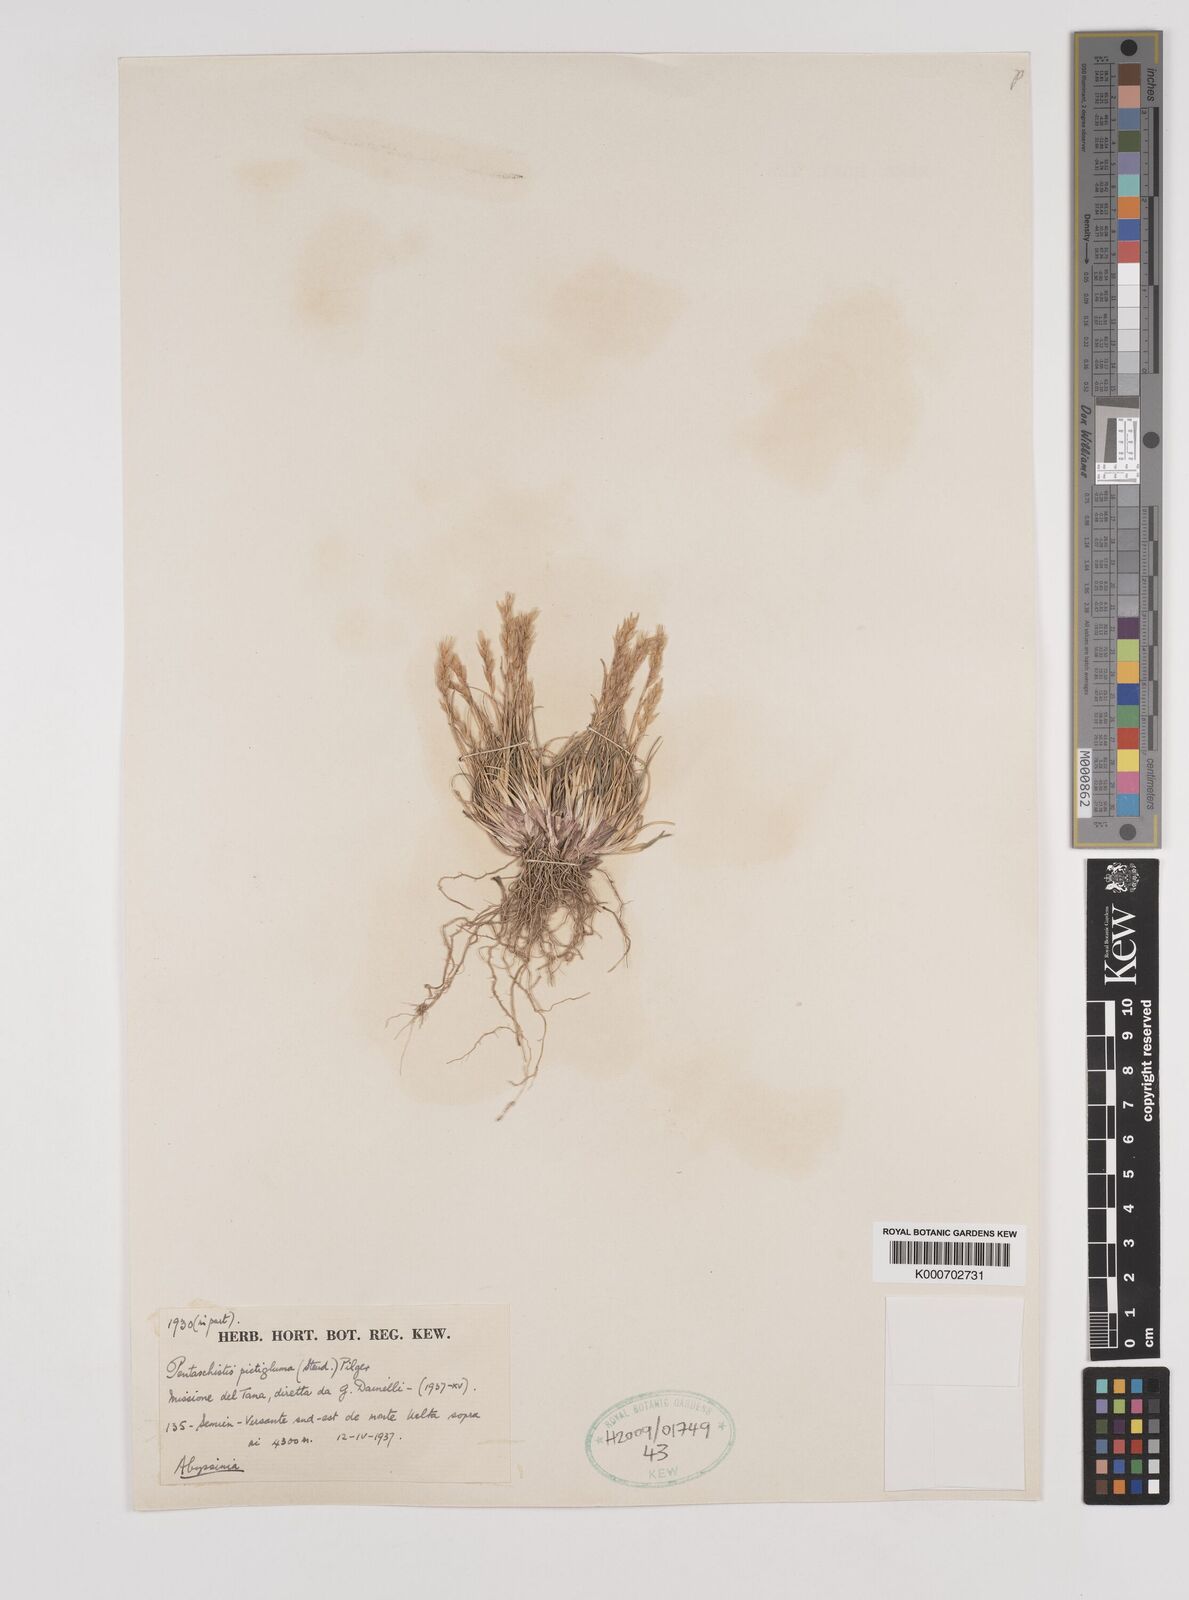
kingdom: Plantae
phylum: Tracheophyta
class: Liliopsida
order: Poales
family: Poaceae
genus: Pentameris
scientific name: Pentameris pictigluma
